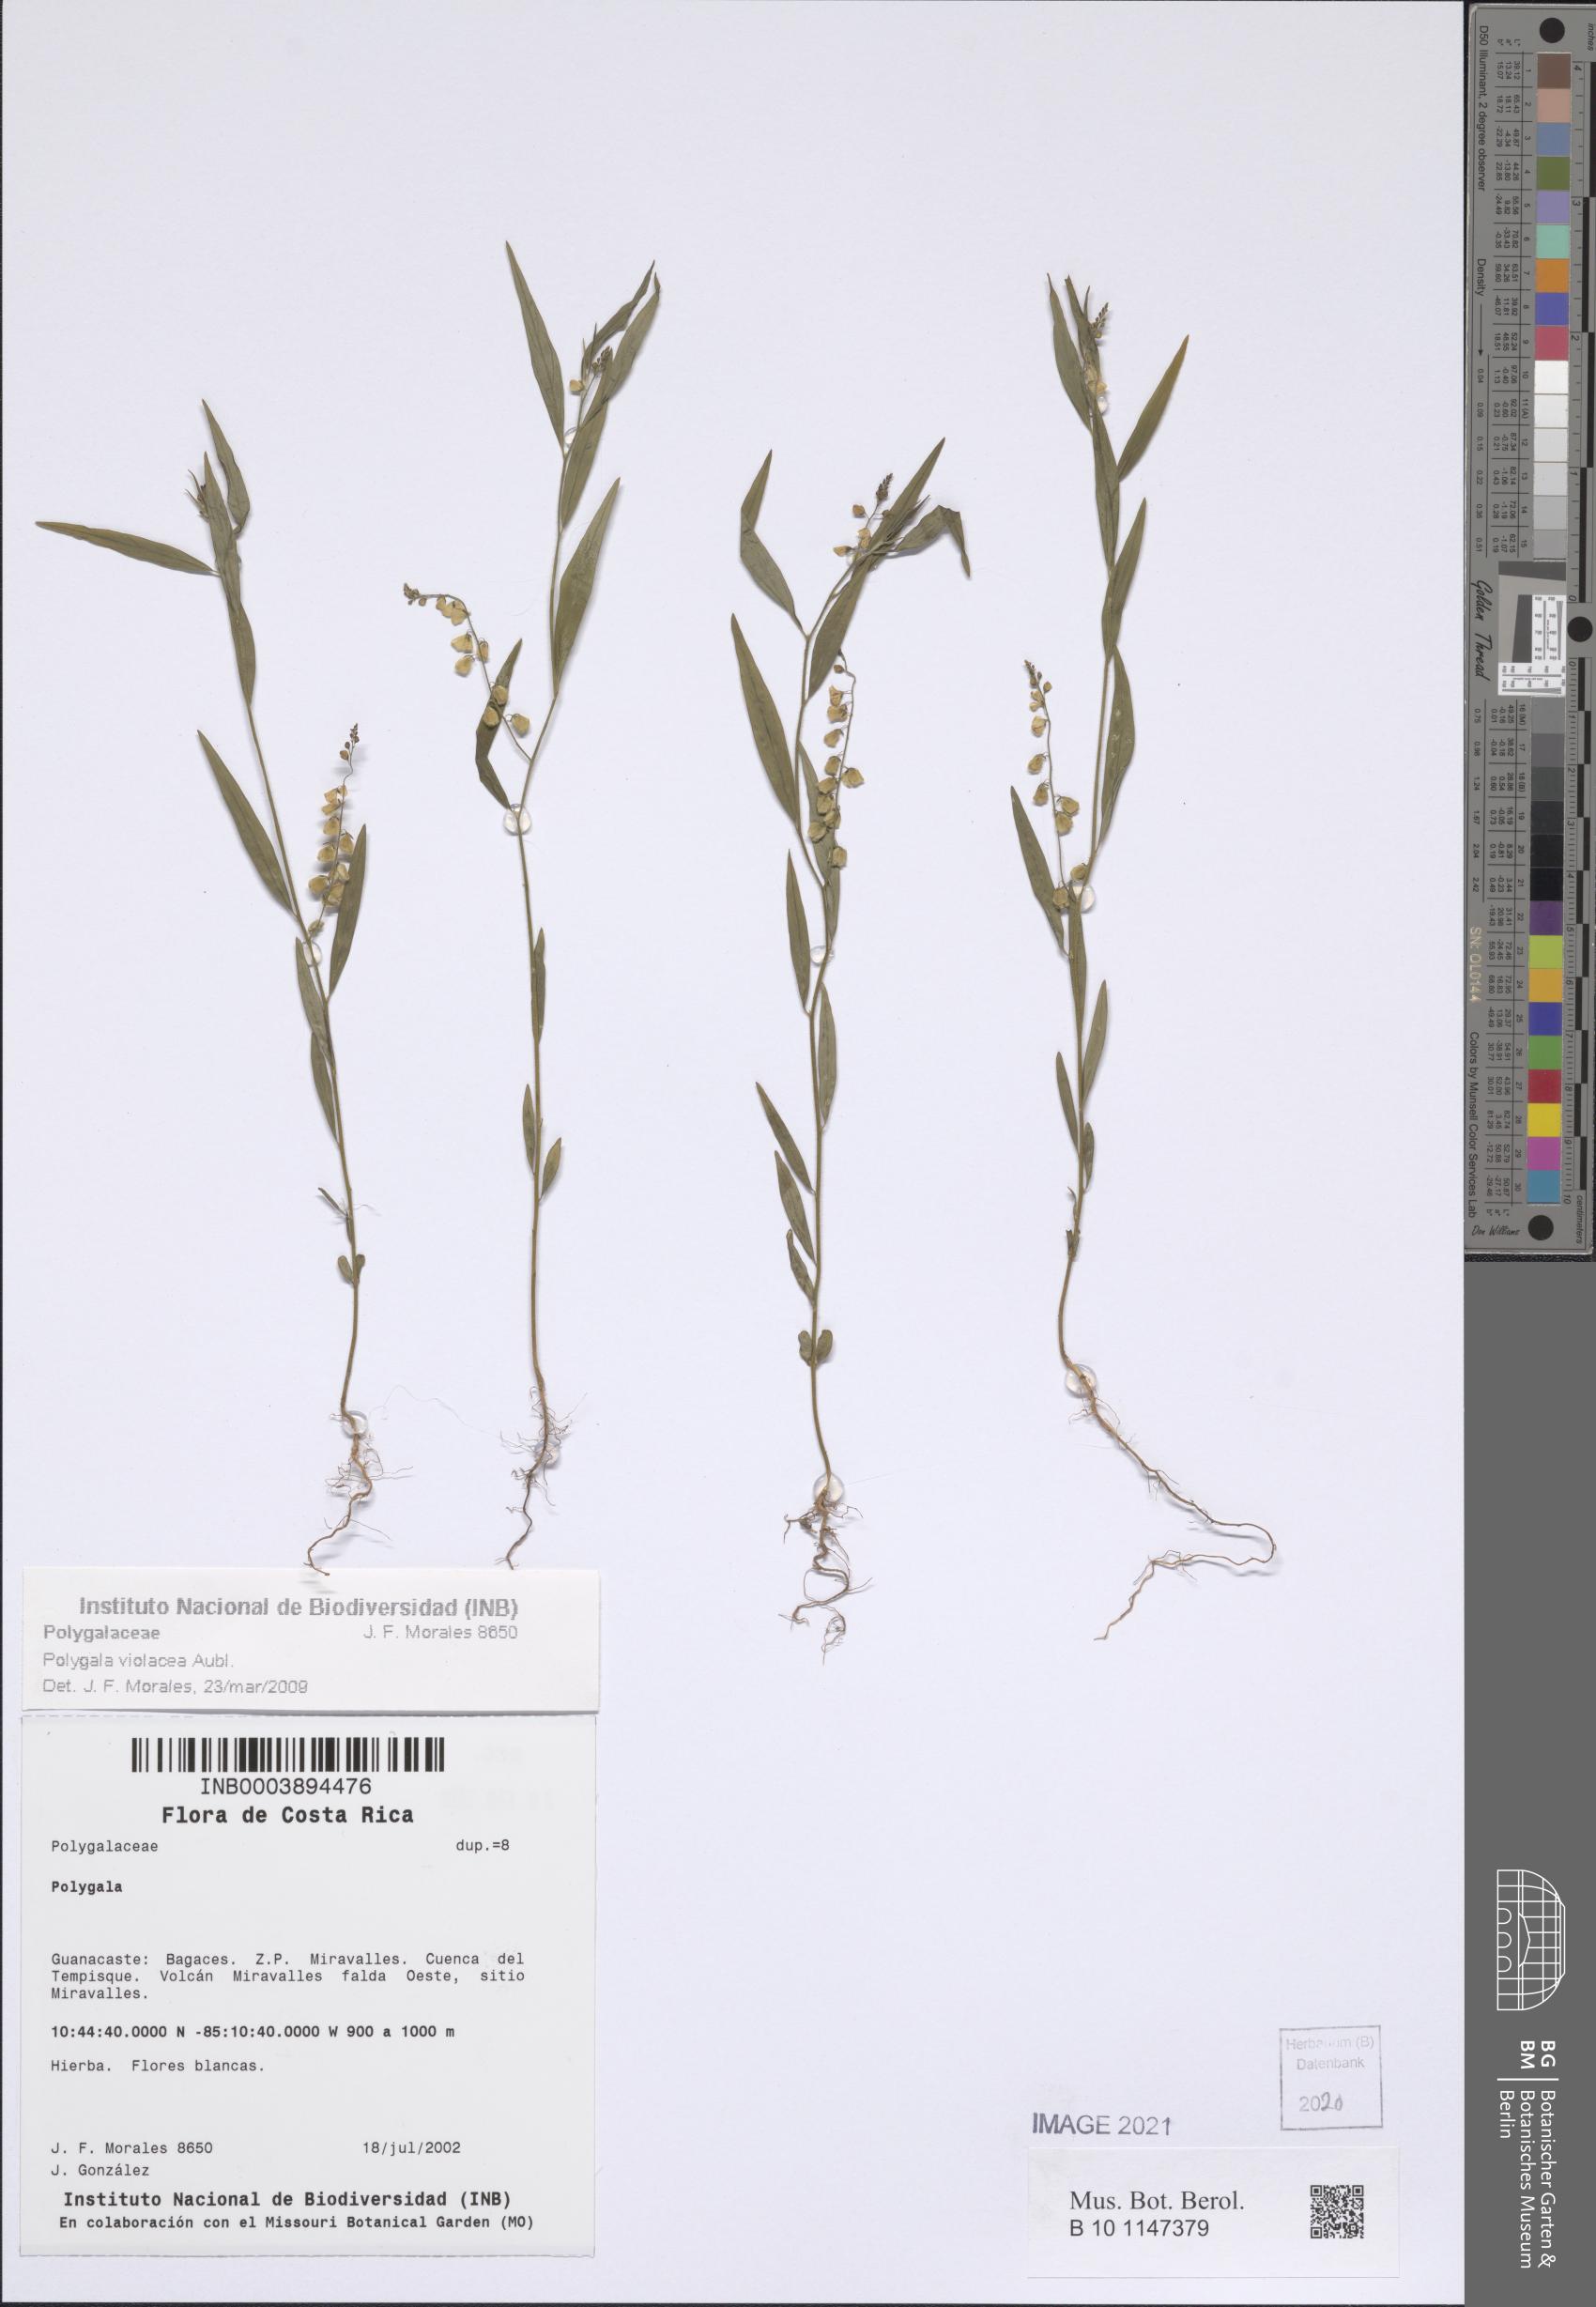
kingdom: Plantae
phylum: Tracheophyta
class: Magnoliopsida
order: Fabales
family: Polygalaceae
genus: Asemeia
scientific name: Asemeia violacea
